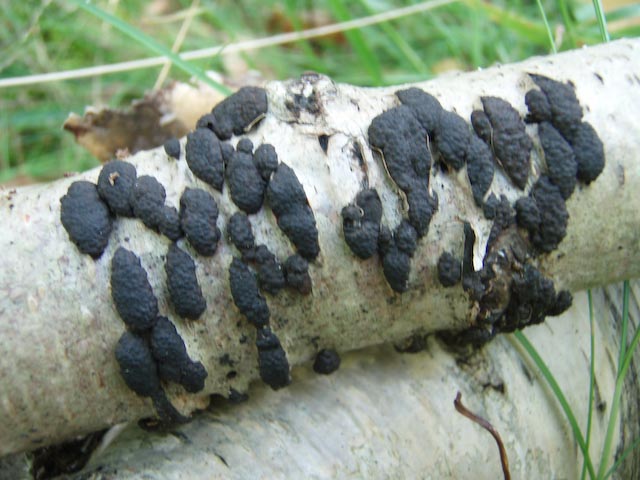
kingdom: Fungi
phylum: Ascomycota
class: Sordariomycetes
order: Xylariales
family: Hypoxylaceae
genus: Jackrogersella
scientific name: Jackrogersella multiformis
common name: foranderlig kulbær
